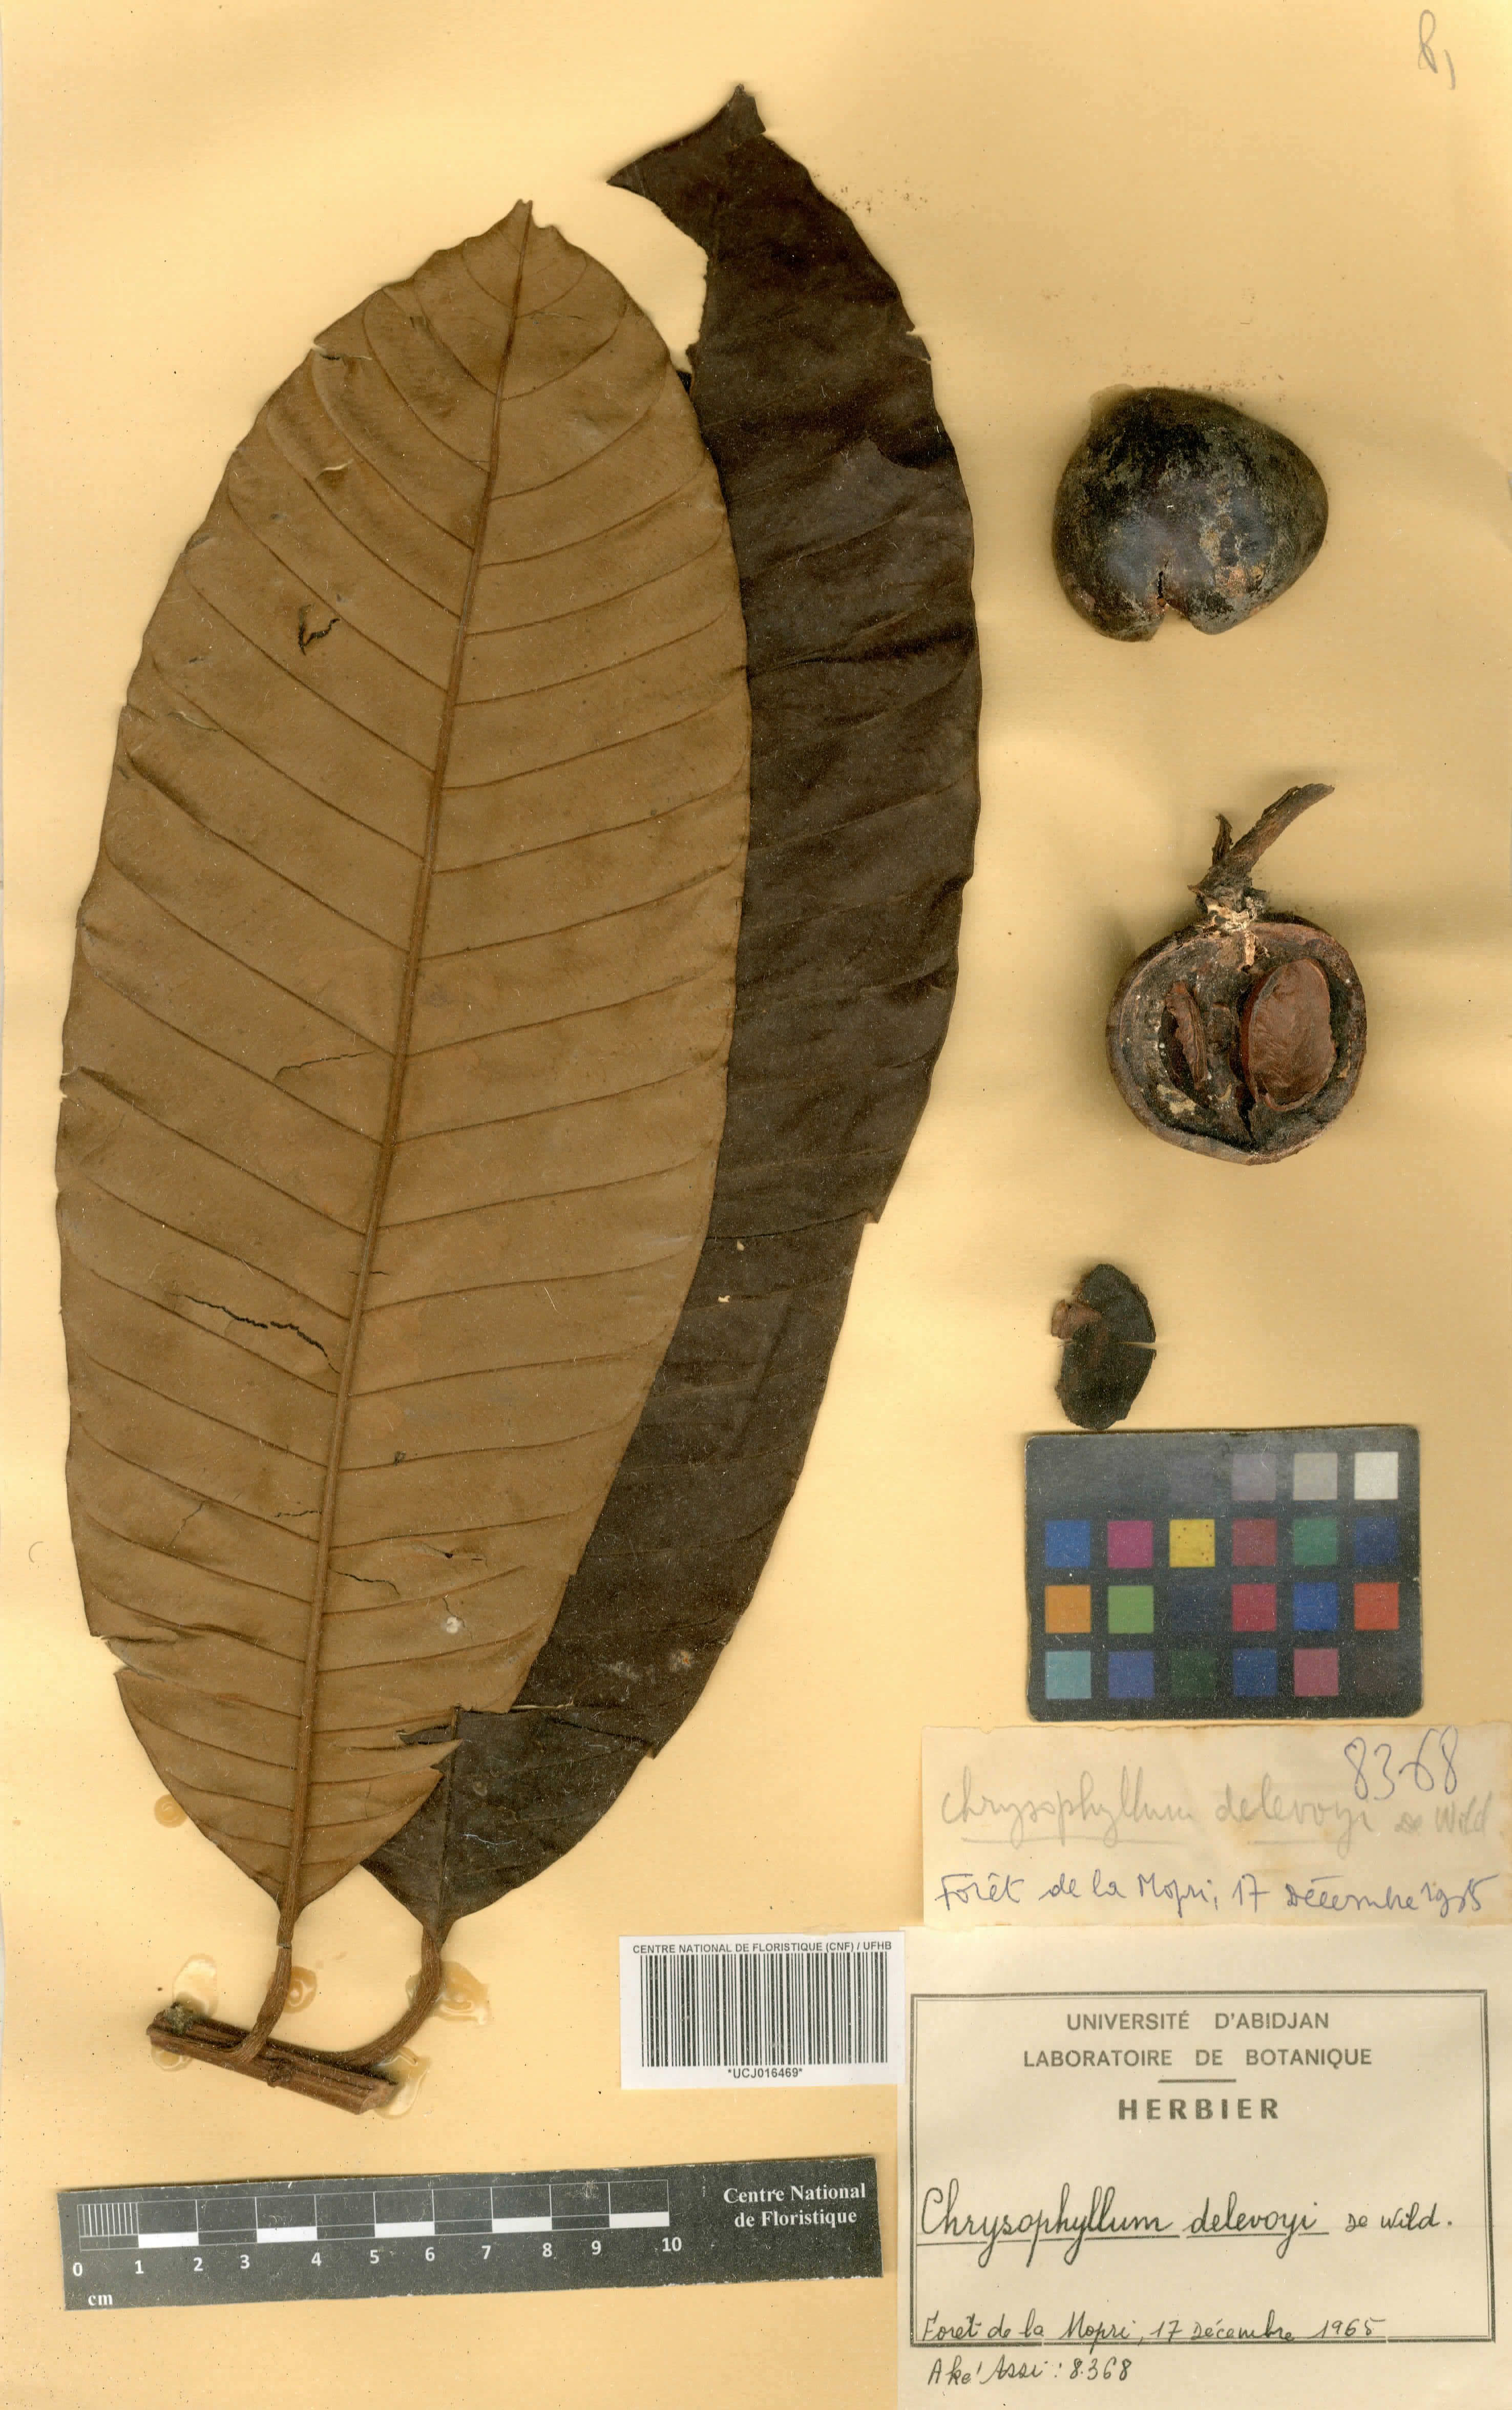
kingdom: Plantae
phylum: Tracheophyta
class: Magnoliopsida
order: Ericales
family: Sapotaceae
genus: Gambeya
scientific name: Gambeya africana
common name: African star apple
